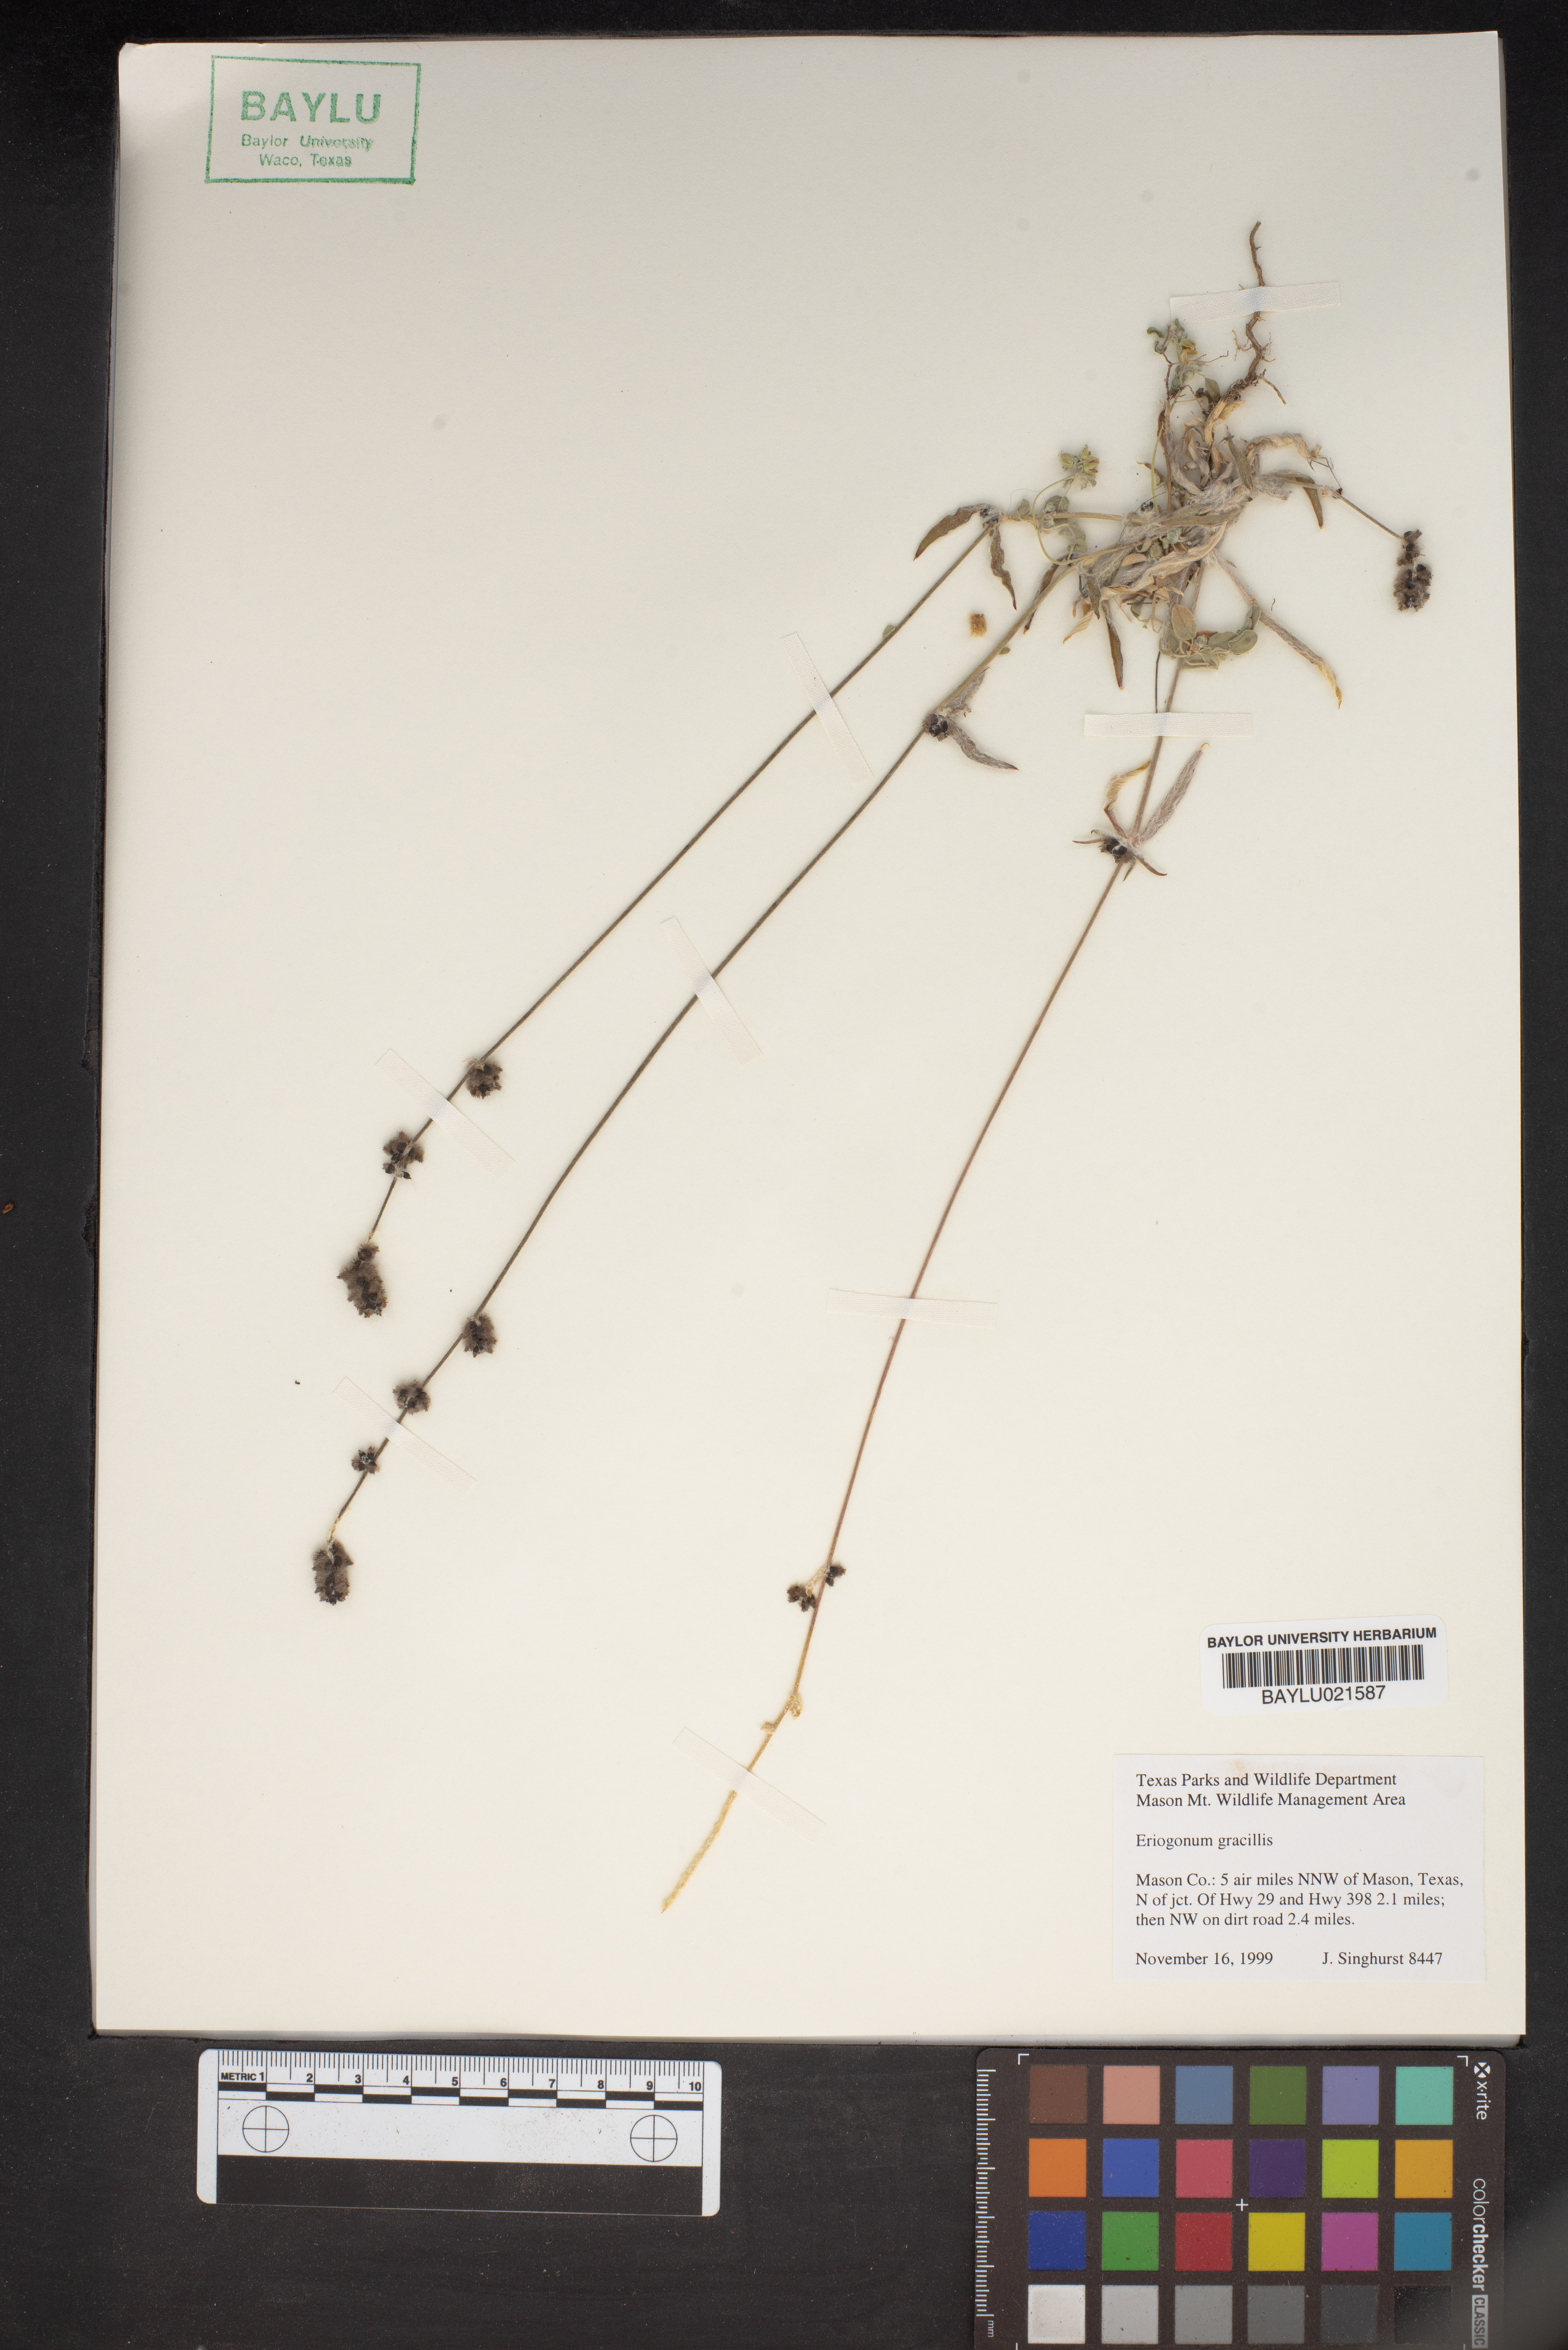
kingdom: Plantae
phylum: Tracheophyta
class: Magnoliopsida
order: Caryophyllales
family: Polygonaceae
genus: Eriogonum
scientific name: Eriogonum gracile
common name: Slender woolly buckwheat
